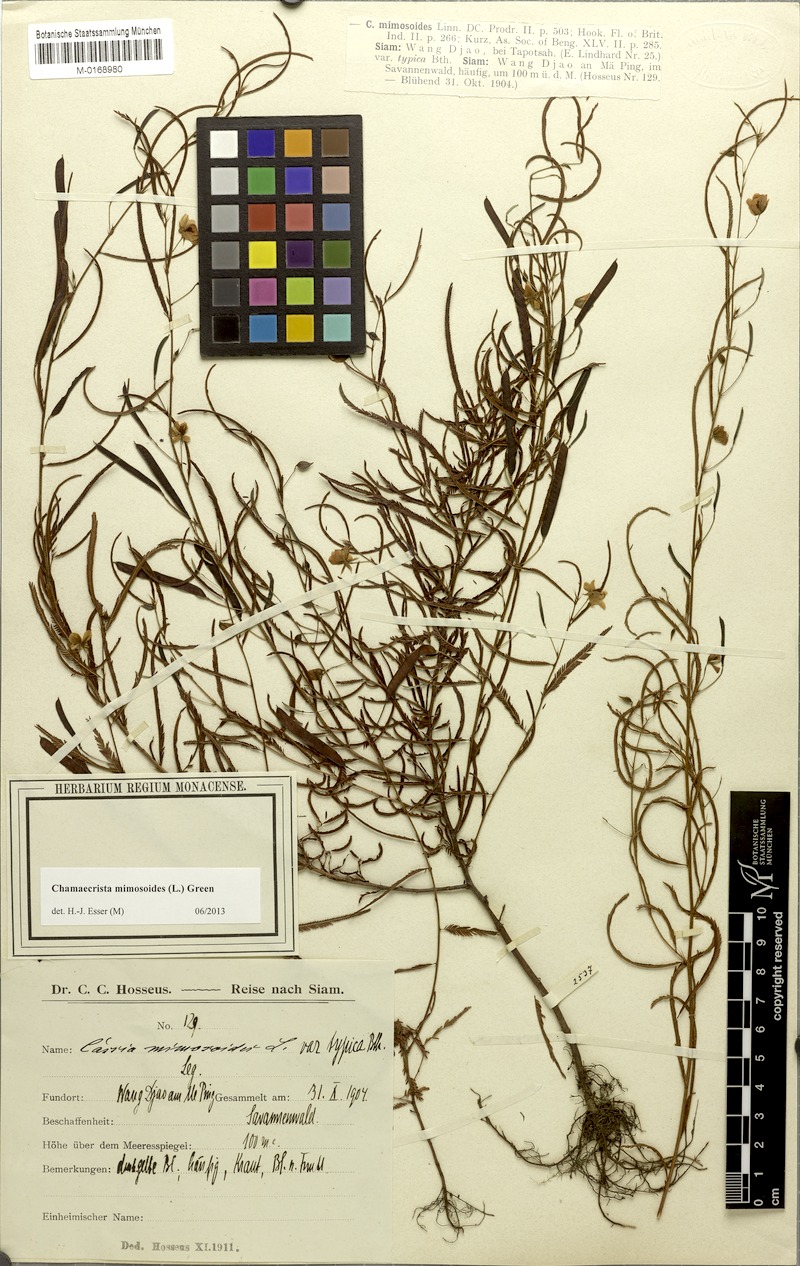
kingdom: Plantae
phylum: Tracheophyta
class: Magnoliopsida
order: Fabales
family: Fabaceae
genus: Chamaecrista
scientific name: Chamaecrista mimosoides
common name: Fish-bone cassia
